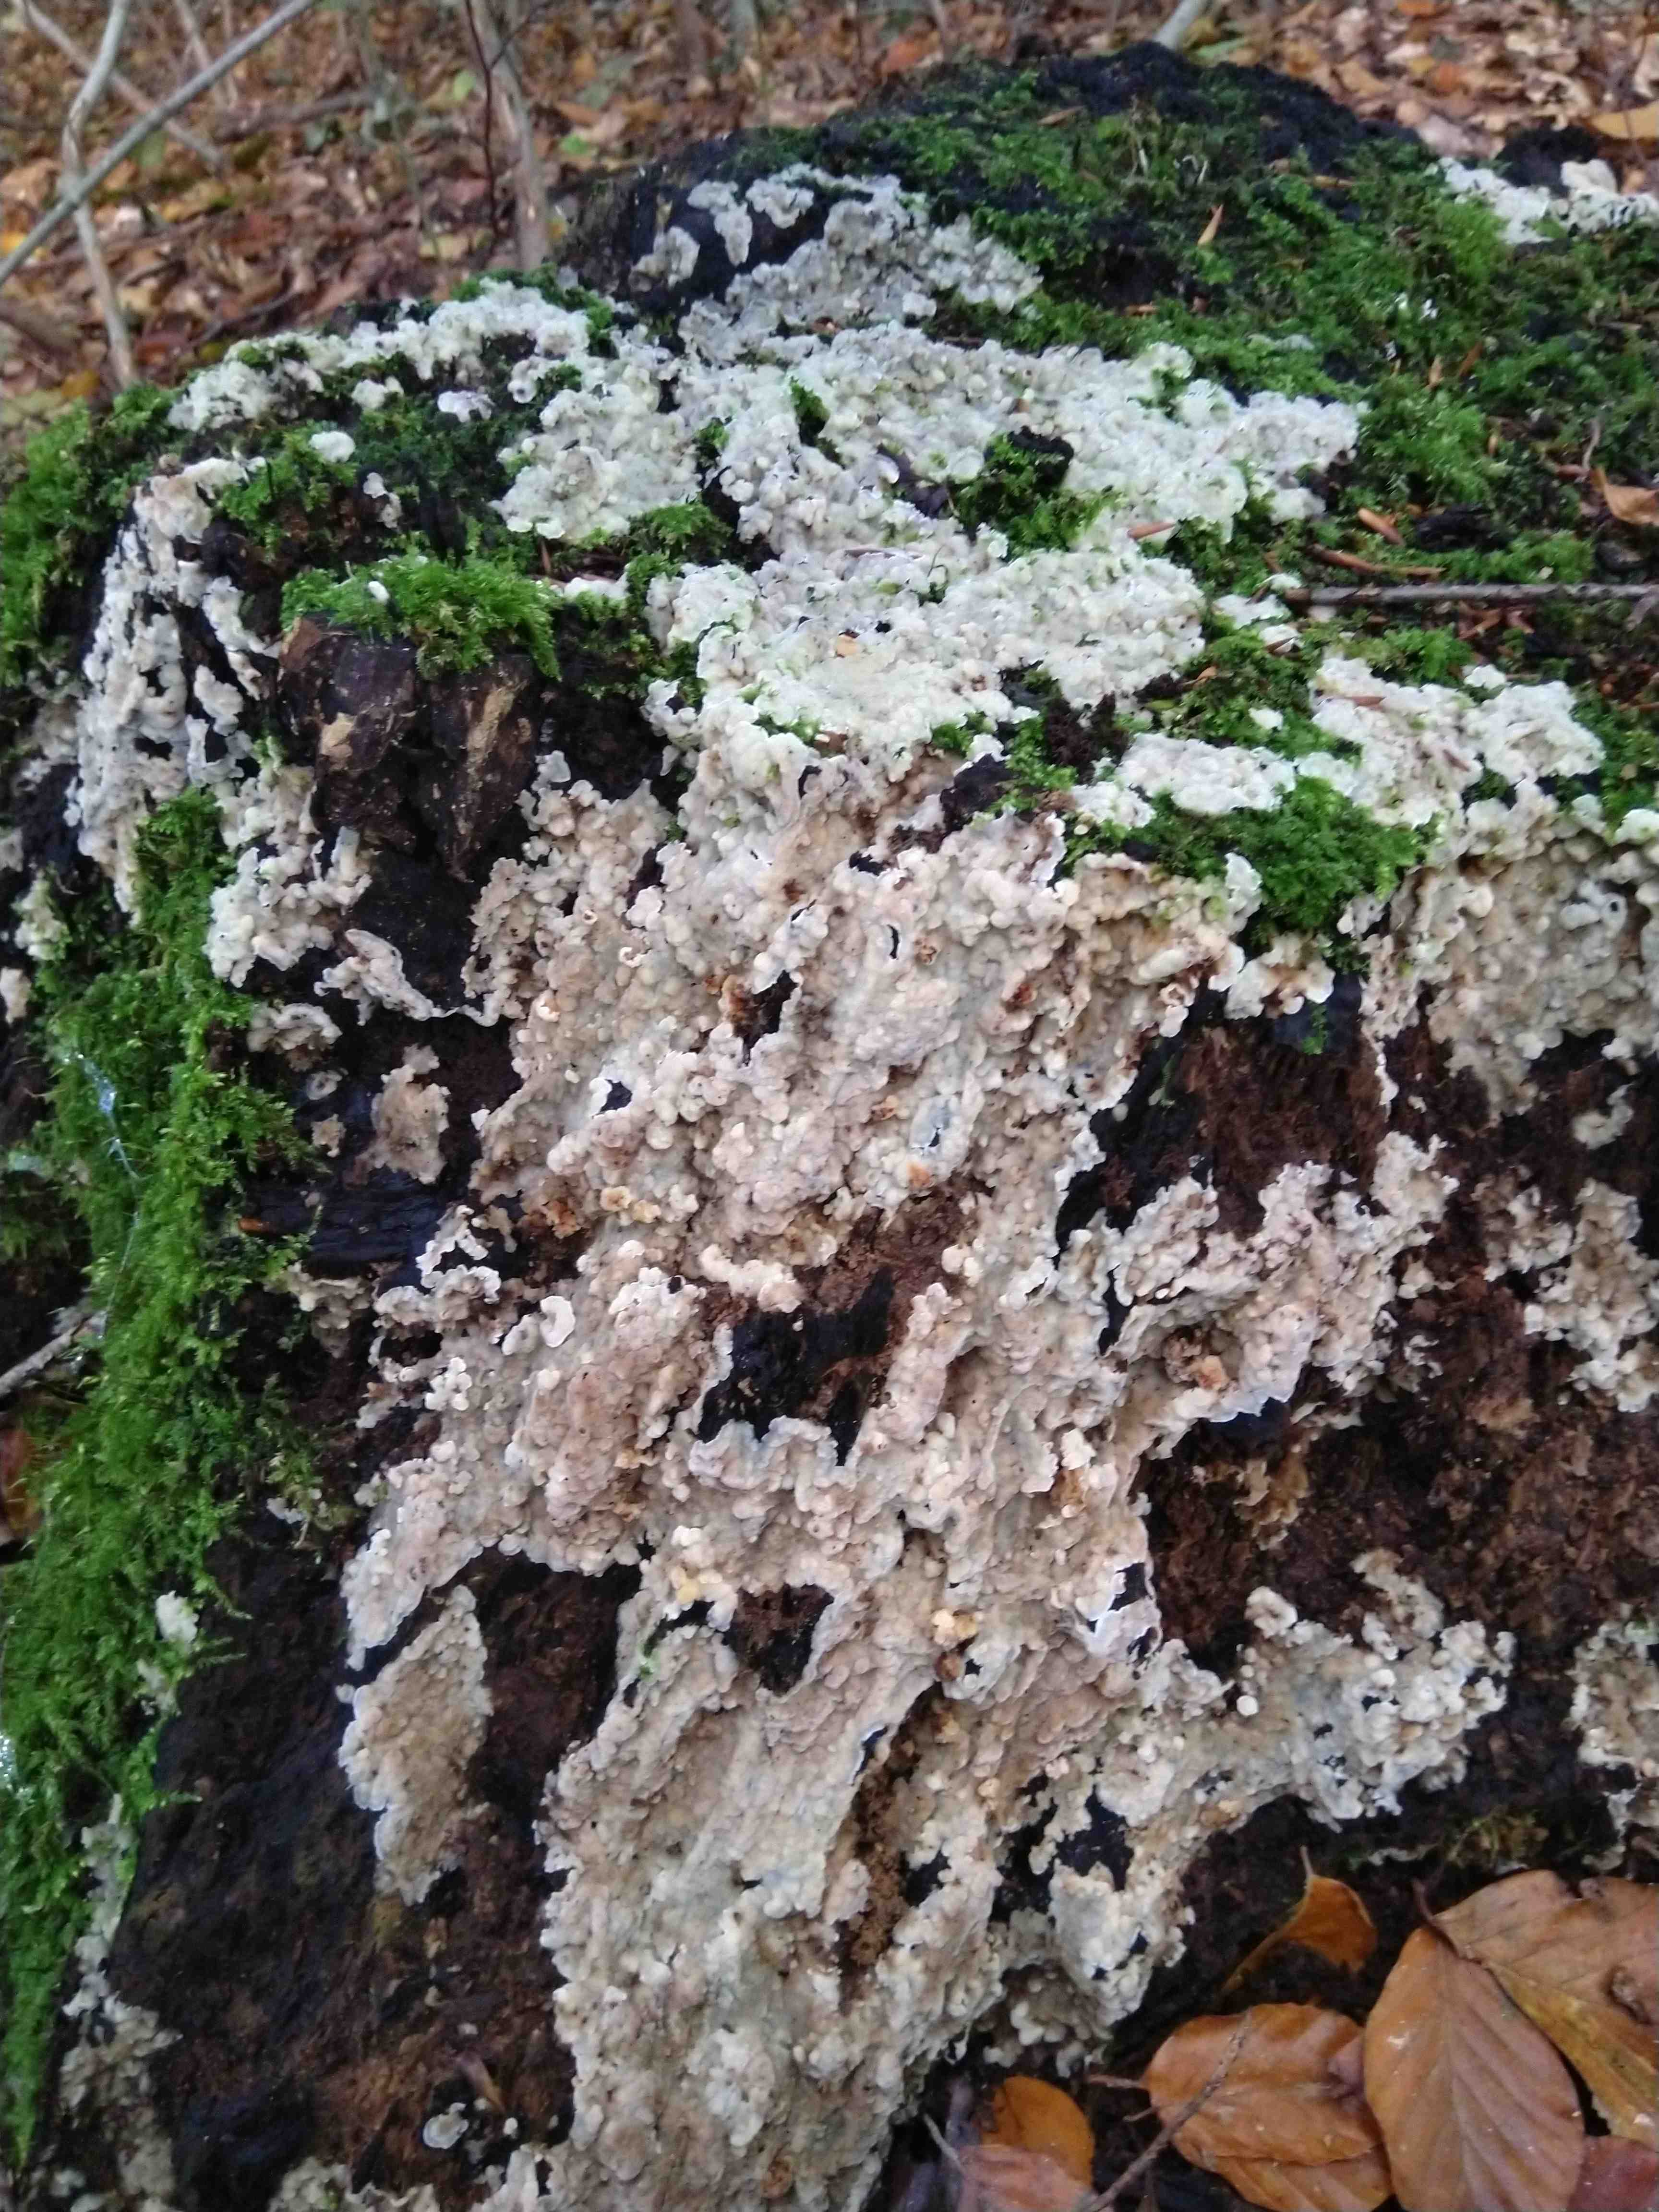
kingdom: Fungi
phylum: Basidiomycota
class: Agaricomycetes
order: Polyporales
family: Meruliaceae
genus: Physisporinus
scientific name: Physisporinus vitreus
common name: mastesvamp
